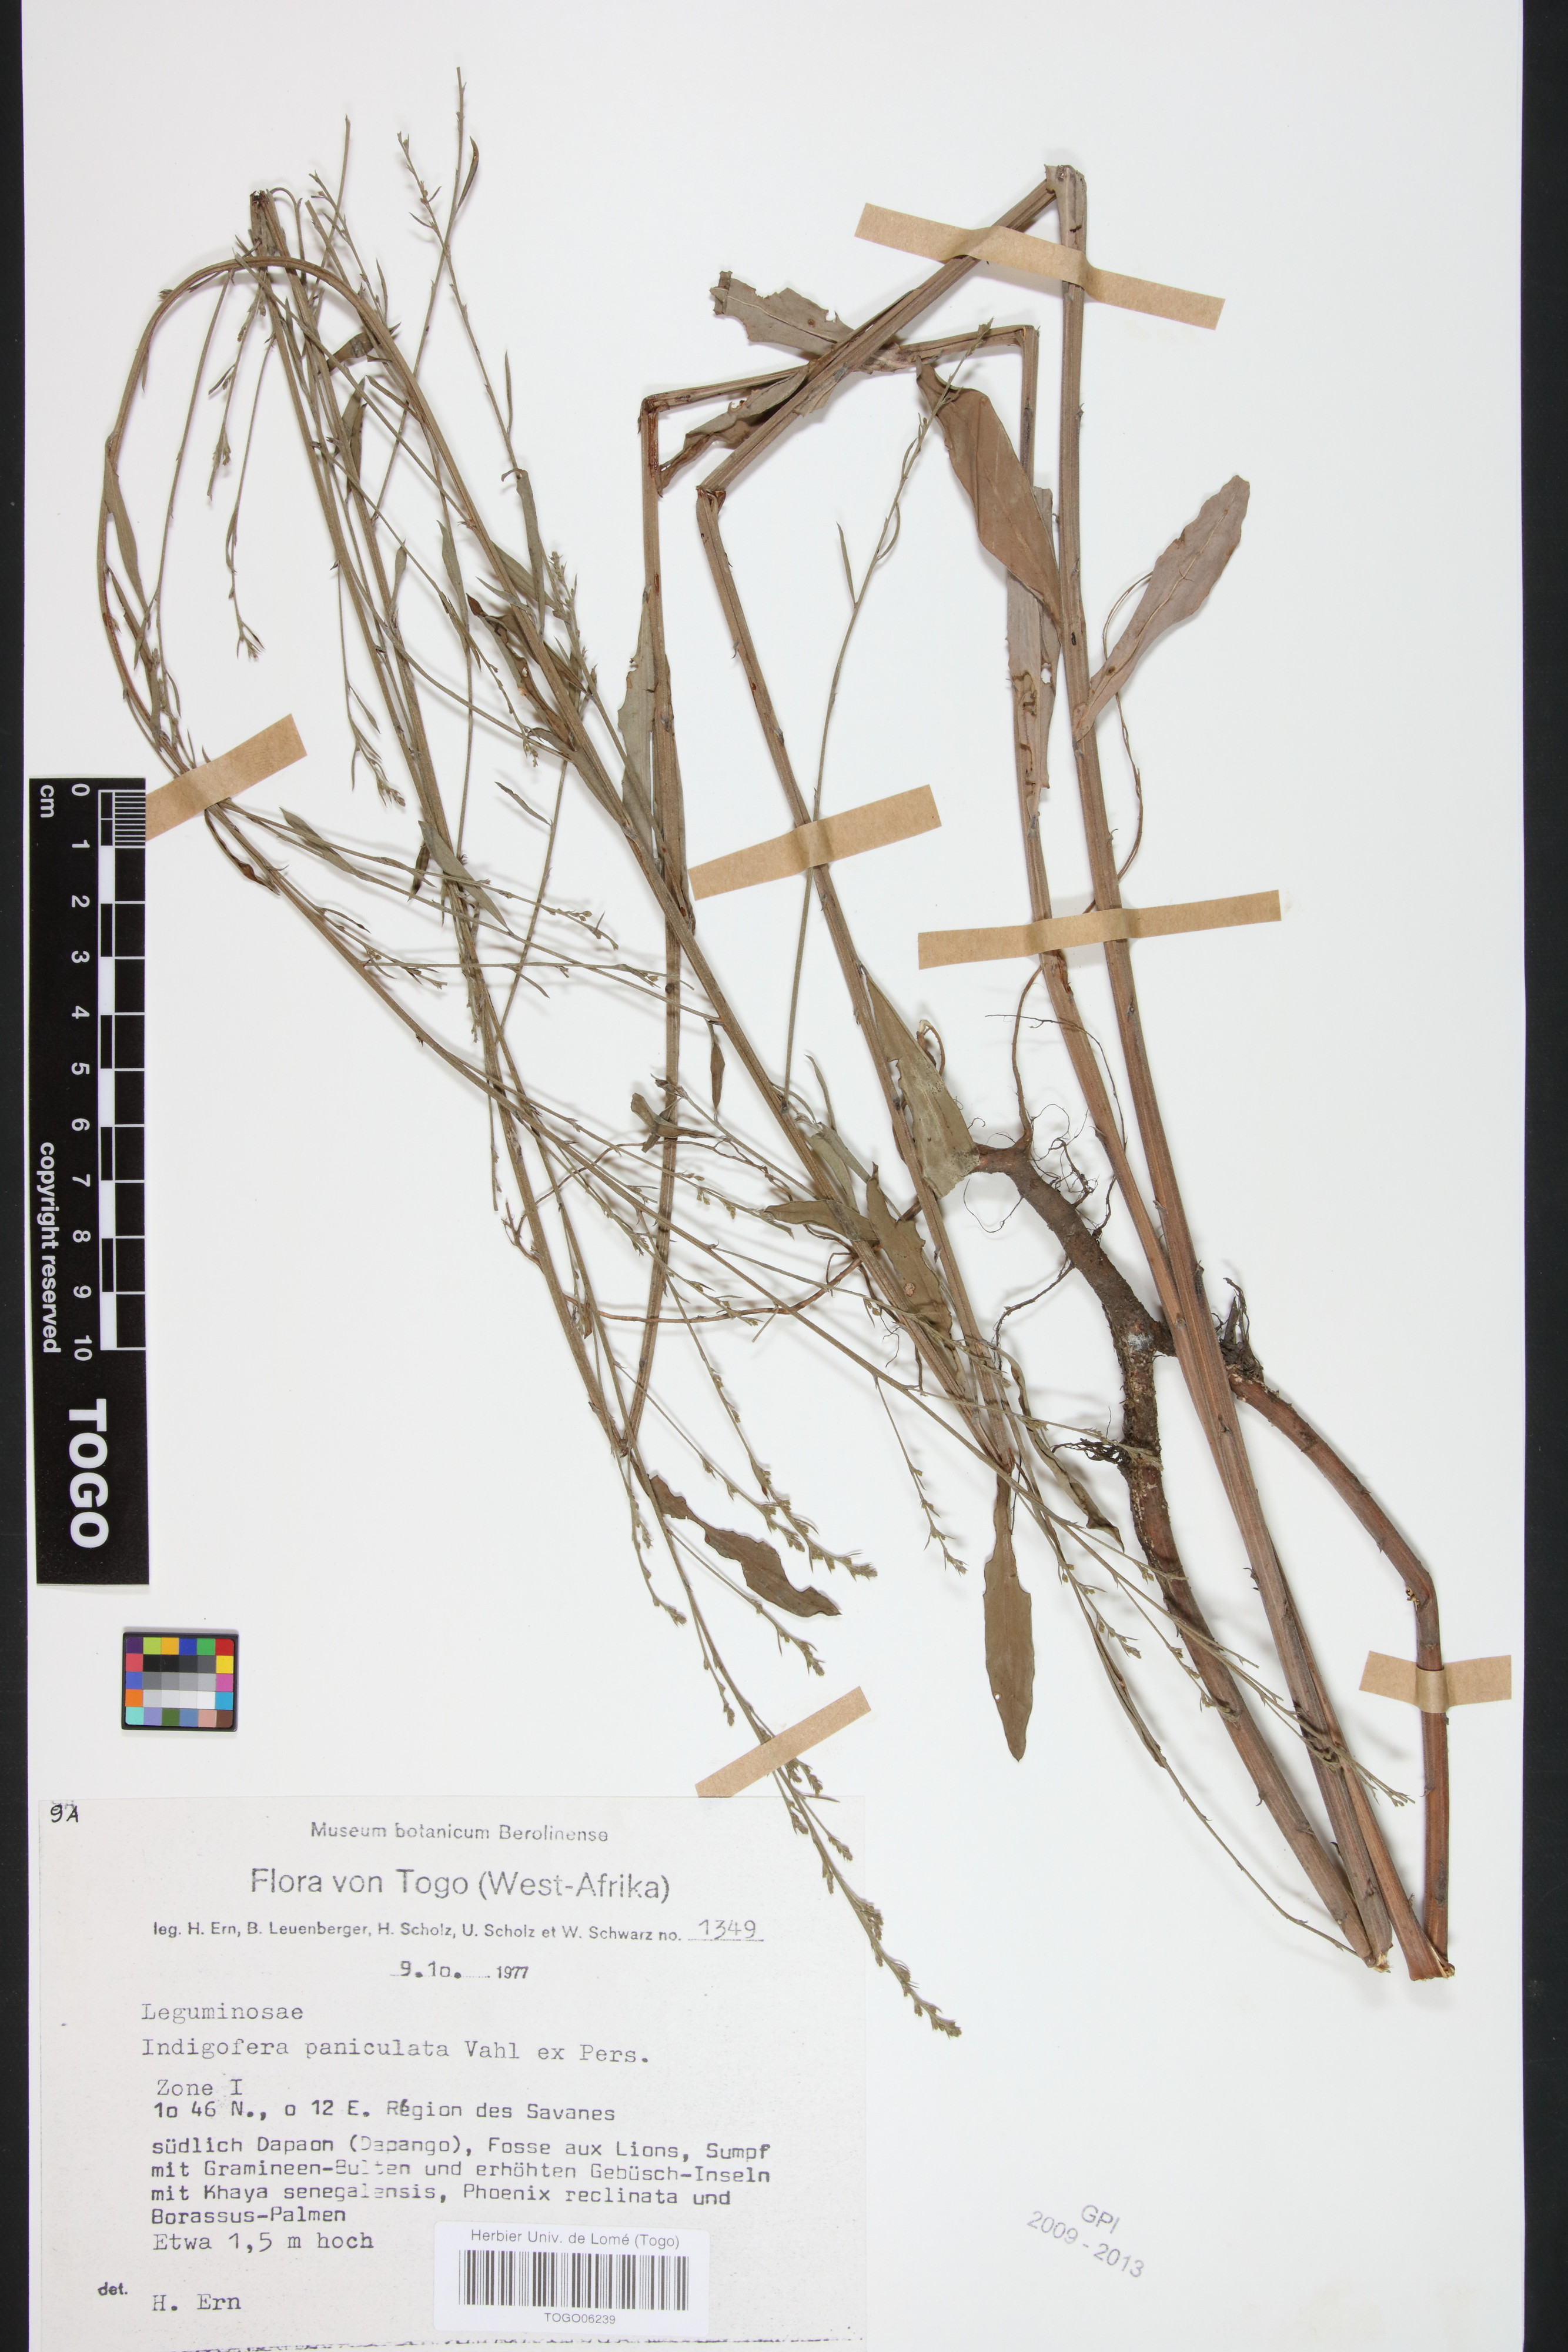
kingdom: Plantae
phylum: Tracheophyta
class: Magnoliopsida
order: Fabales
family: Fabaceae
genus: Indigofera
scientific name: Indigofera paniculata
